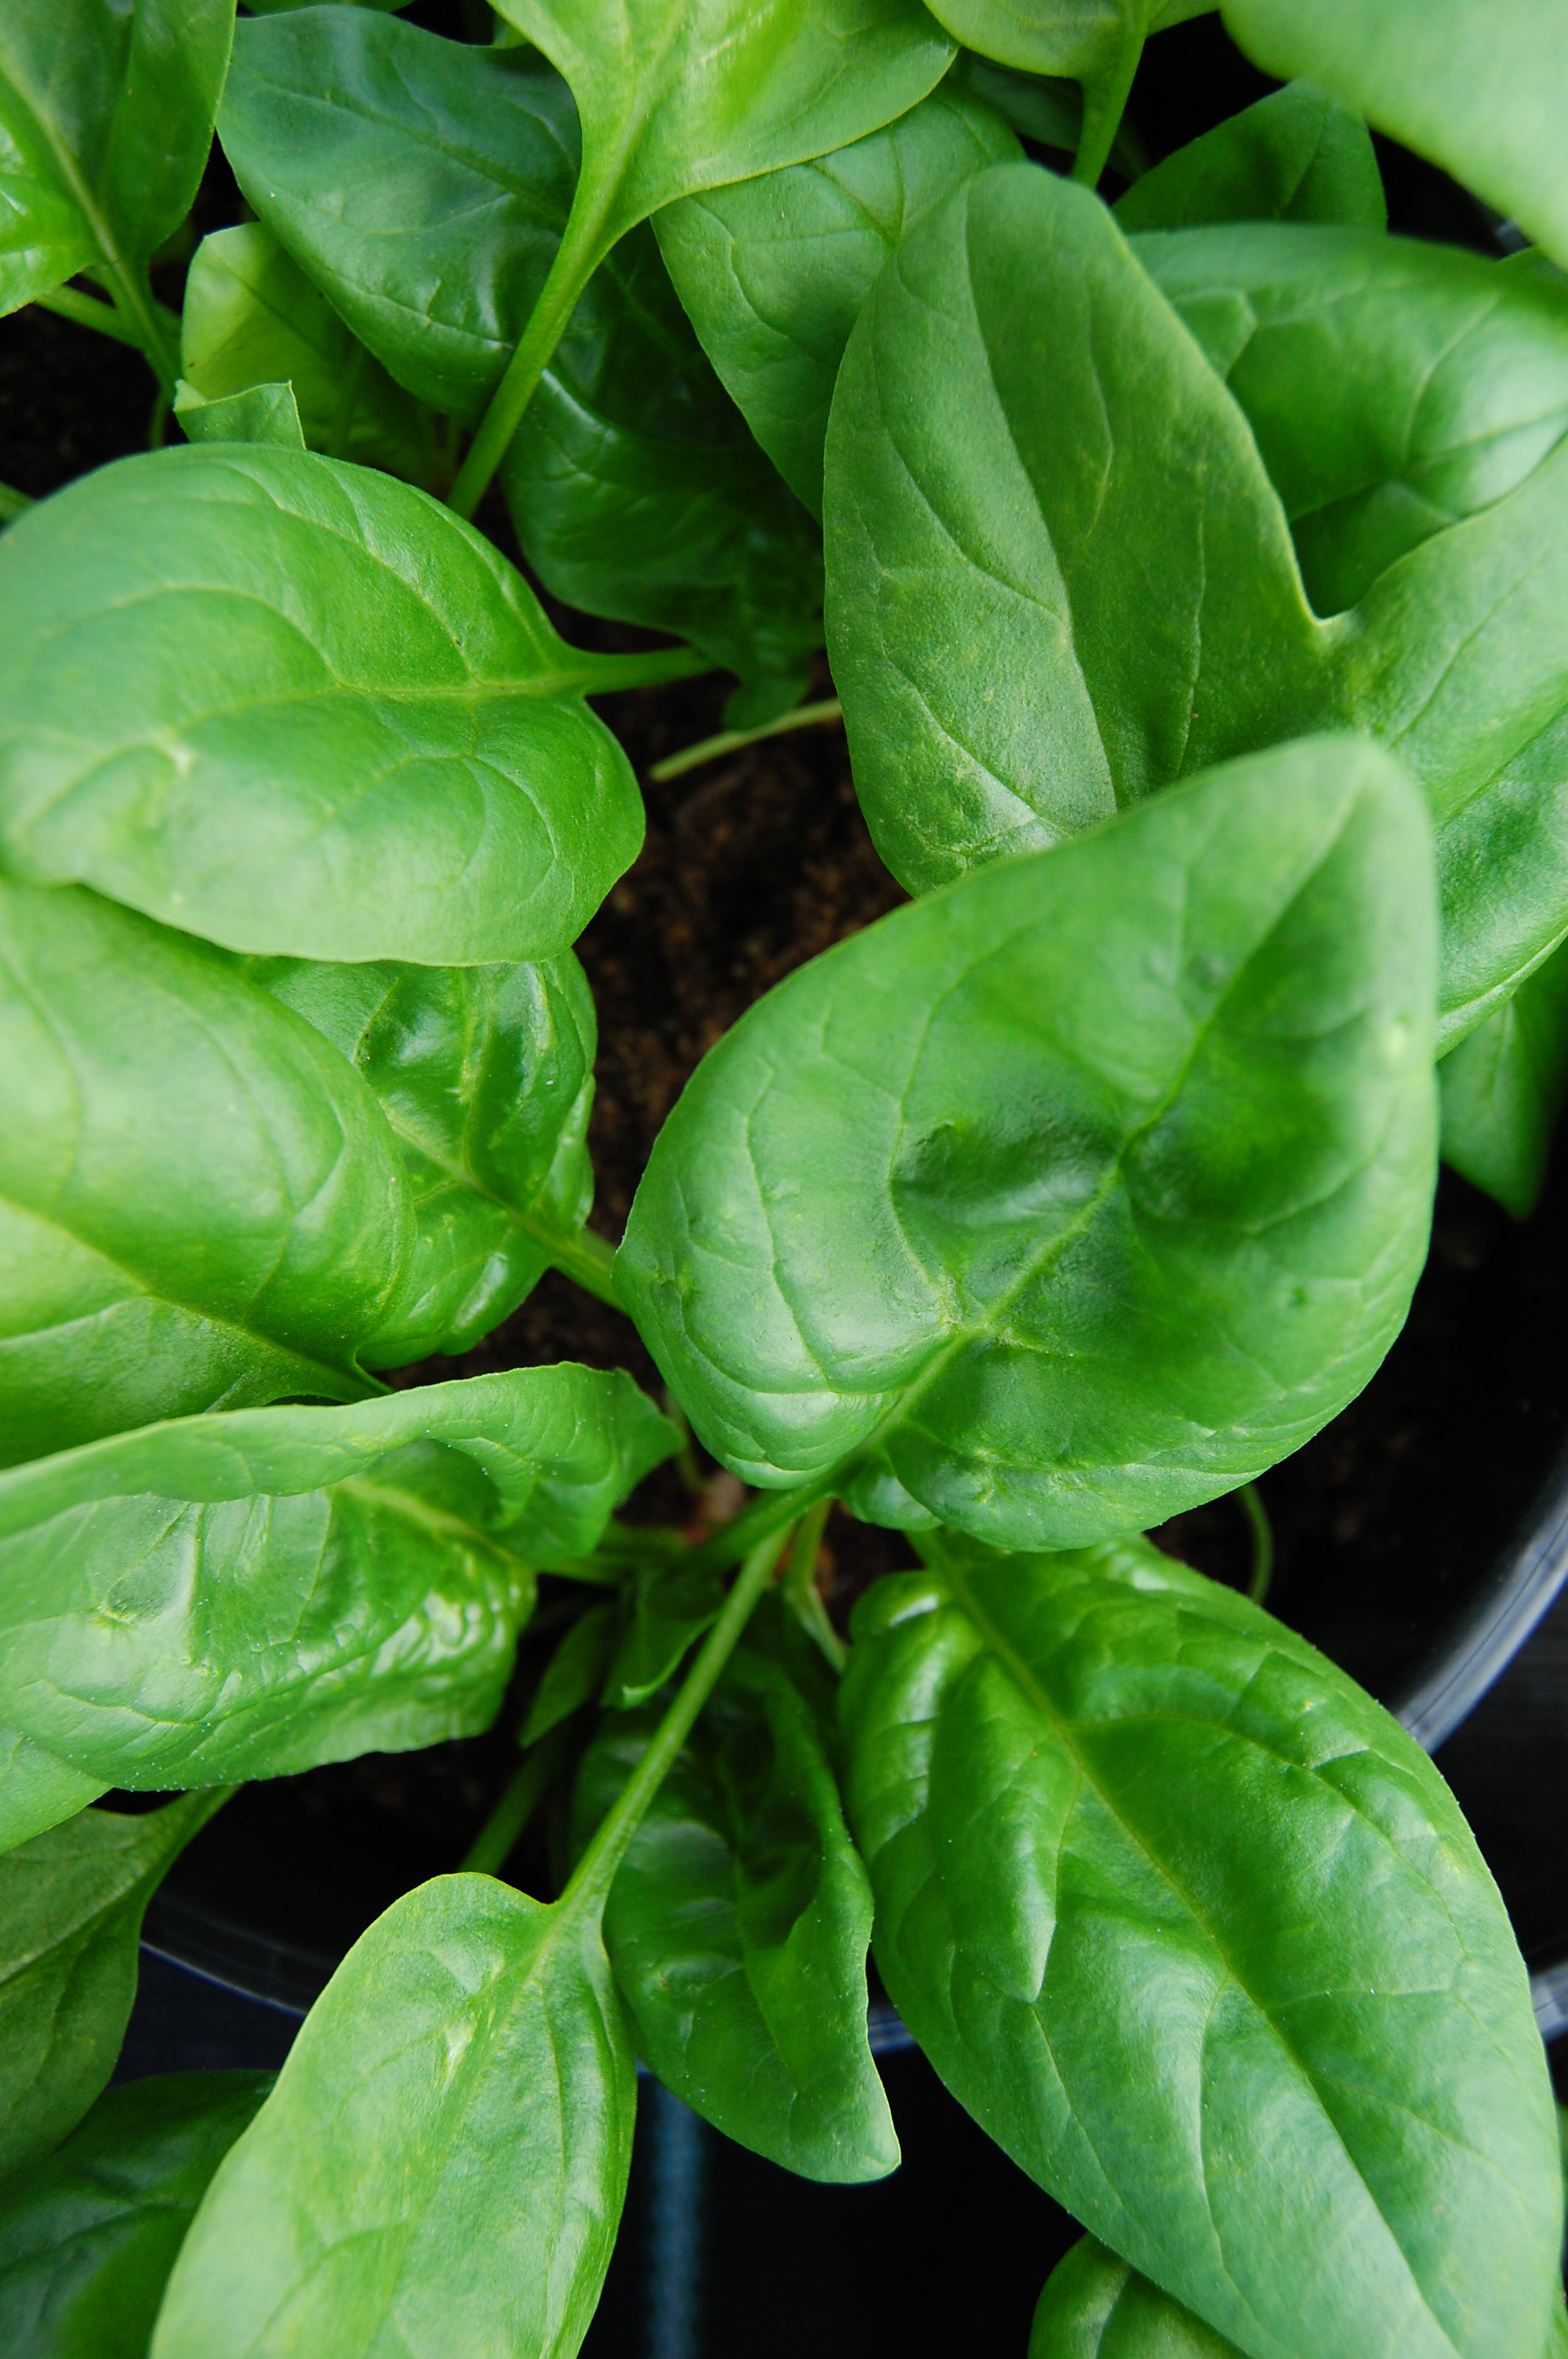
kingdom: Plantae
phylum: Tracheophyta
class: Magnoliopsida
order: Caryophyllales
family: Amaranthaceae
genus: Spinacia
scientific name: Spinacia oleracea
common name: Spinach
